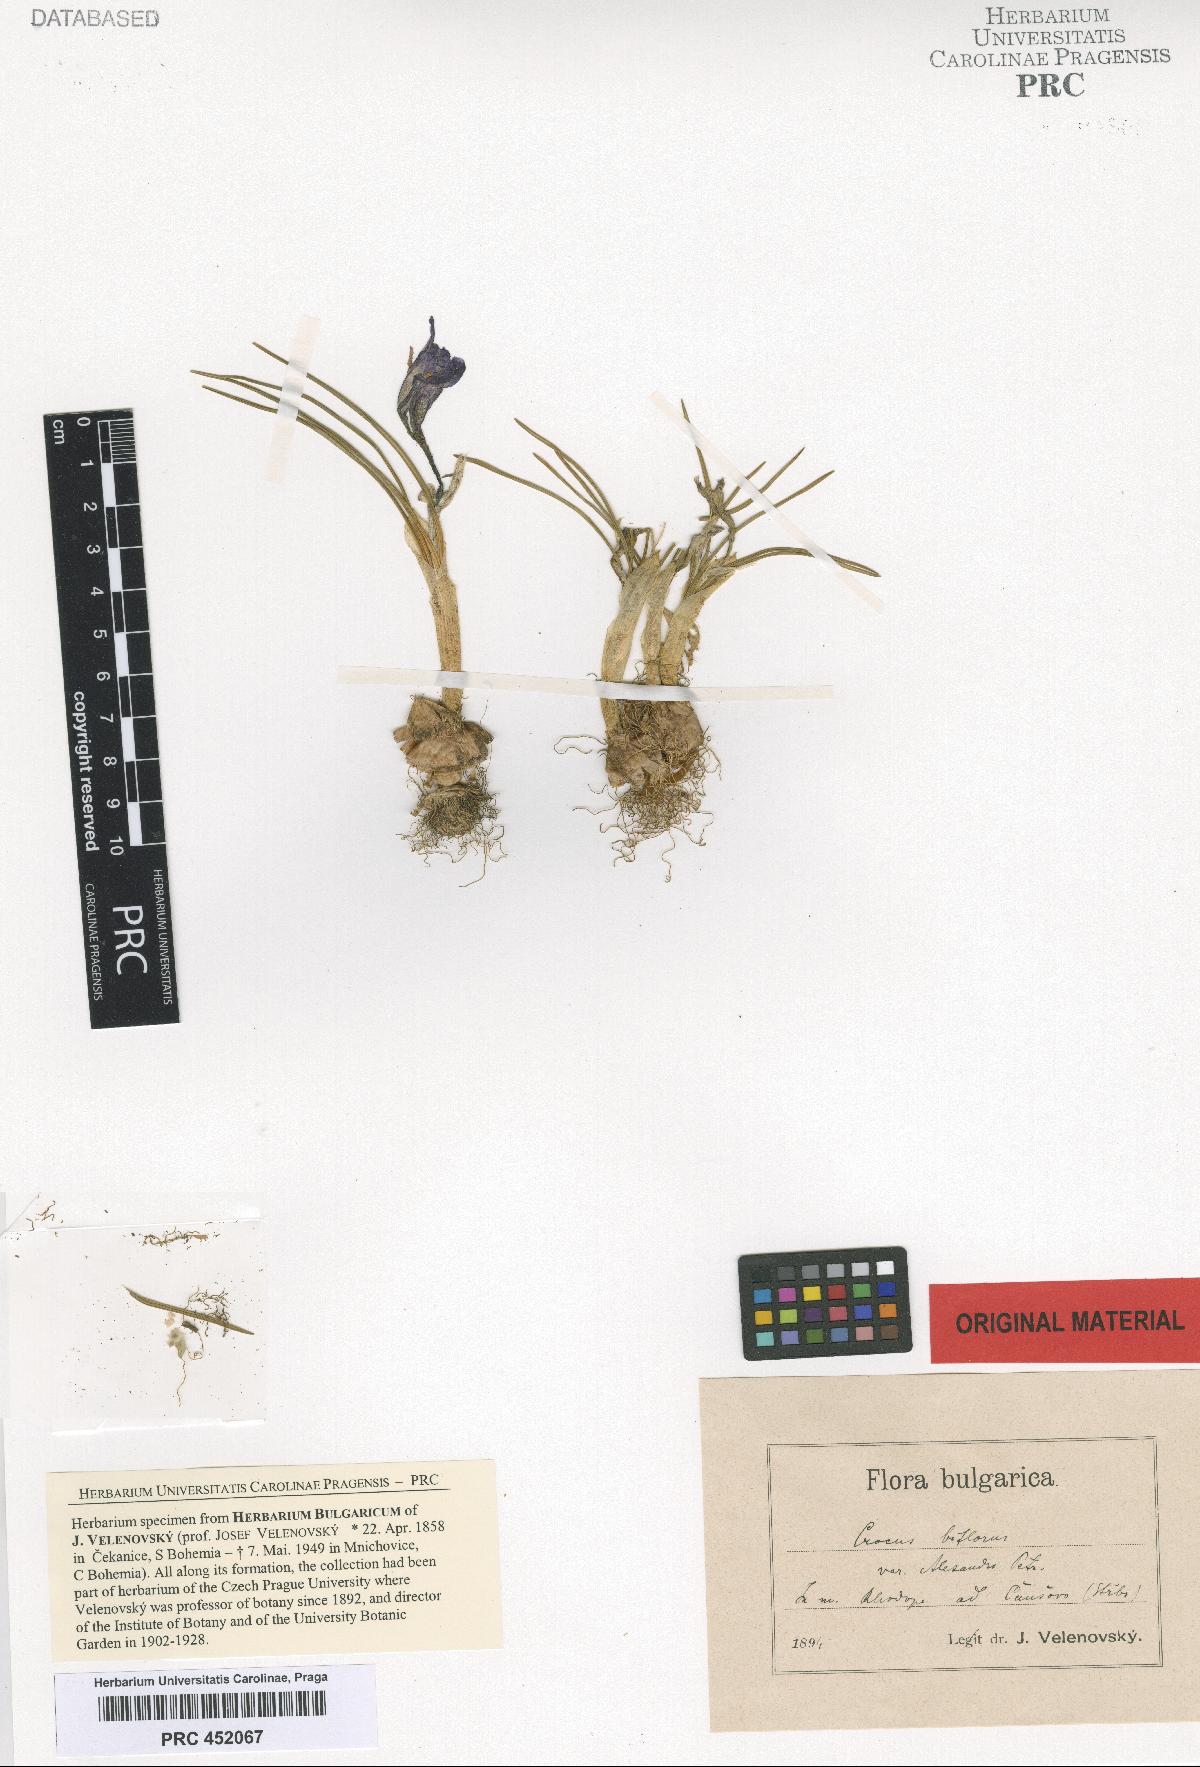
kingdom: Plantae
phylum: Tracheophyta
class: Liliopsida
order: Asparagales
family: Iridaceae
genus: Crocus
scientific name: Crocus alexandri
